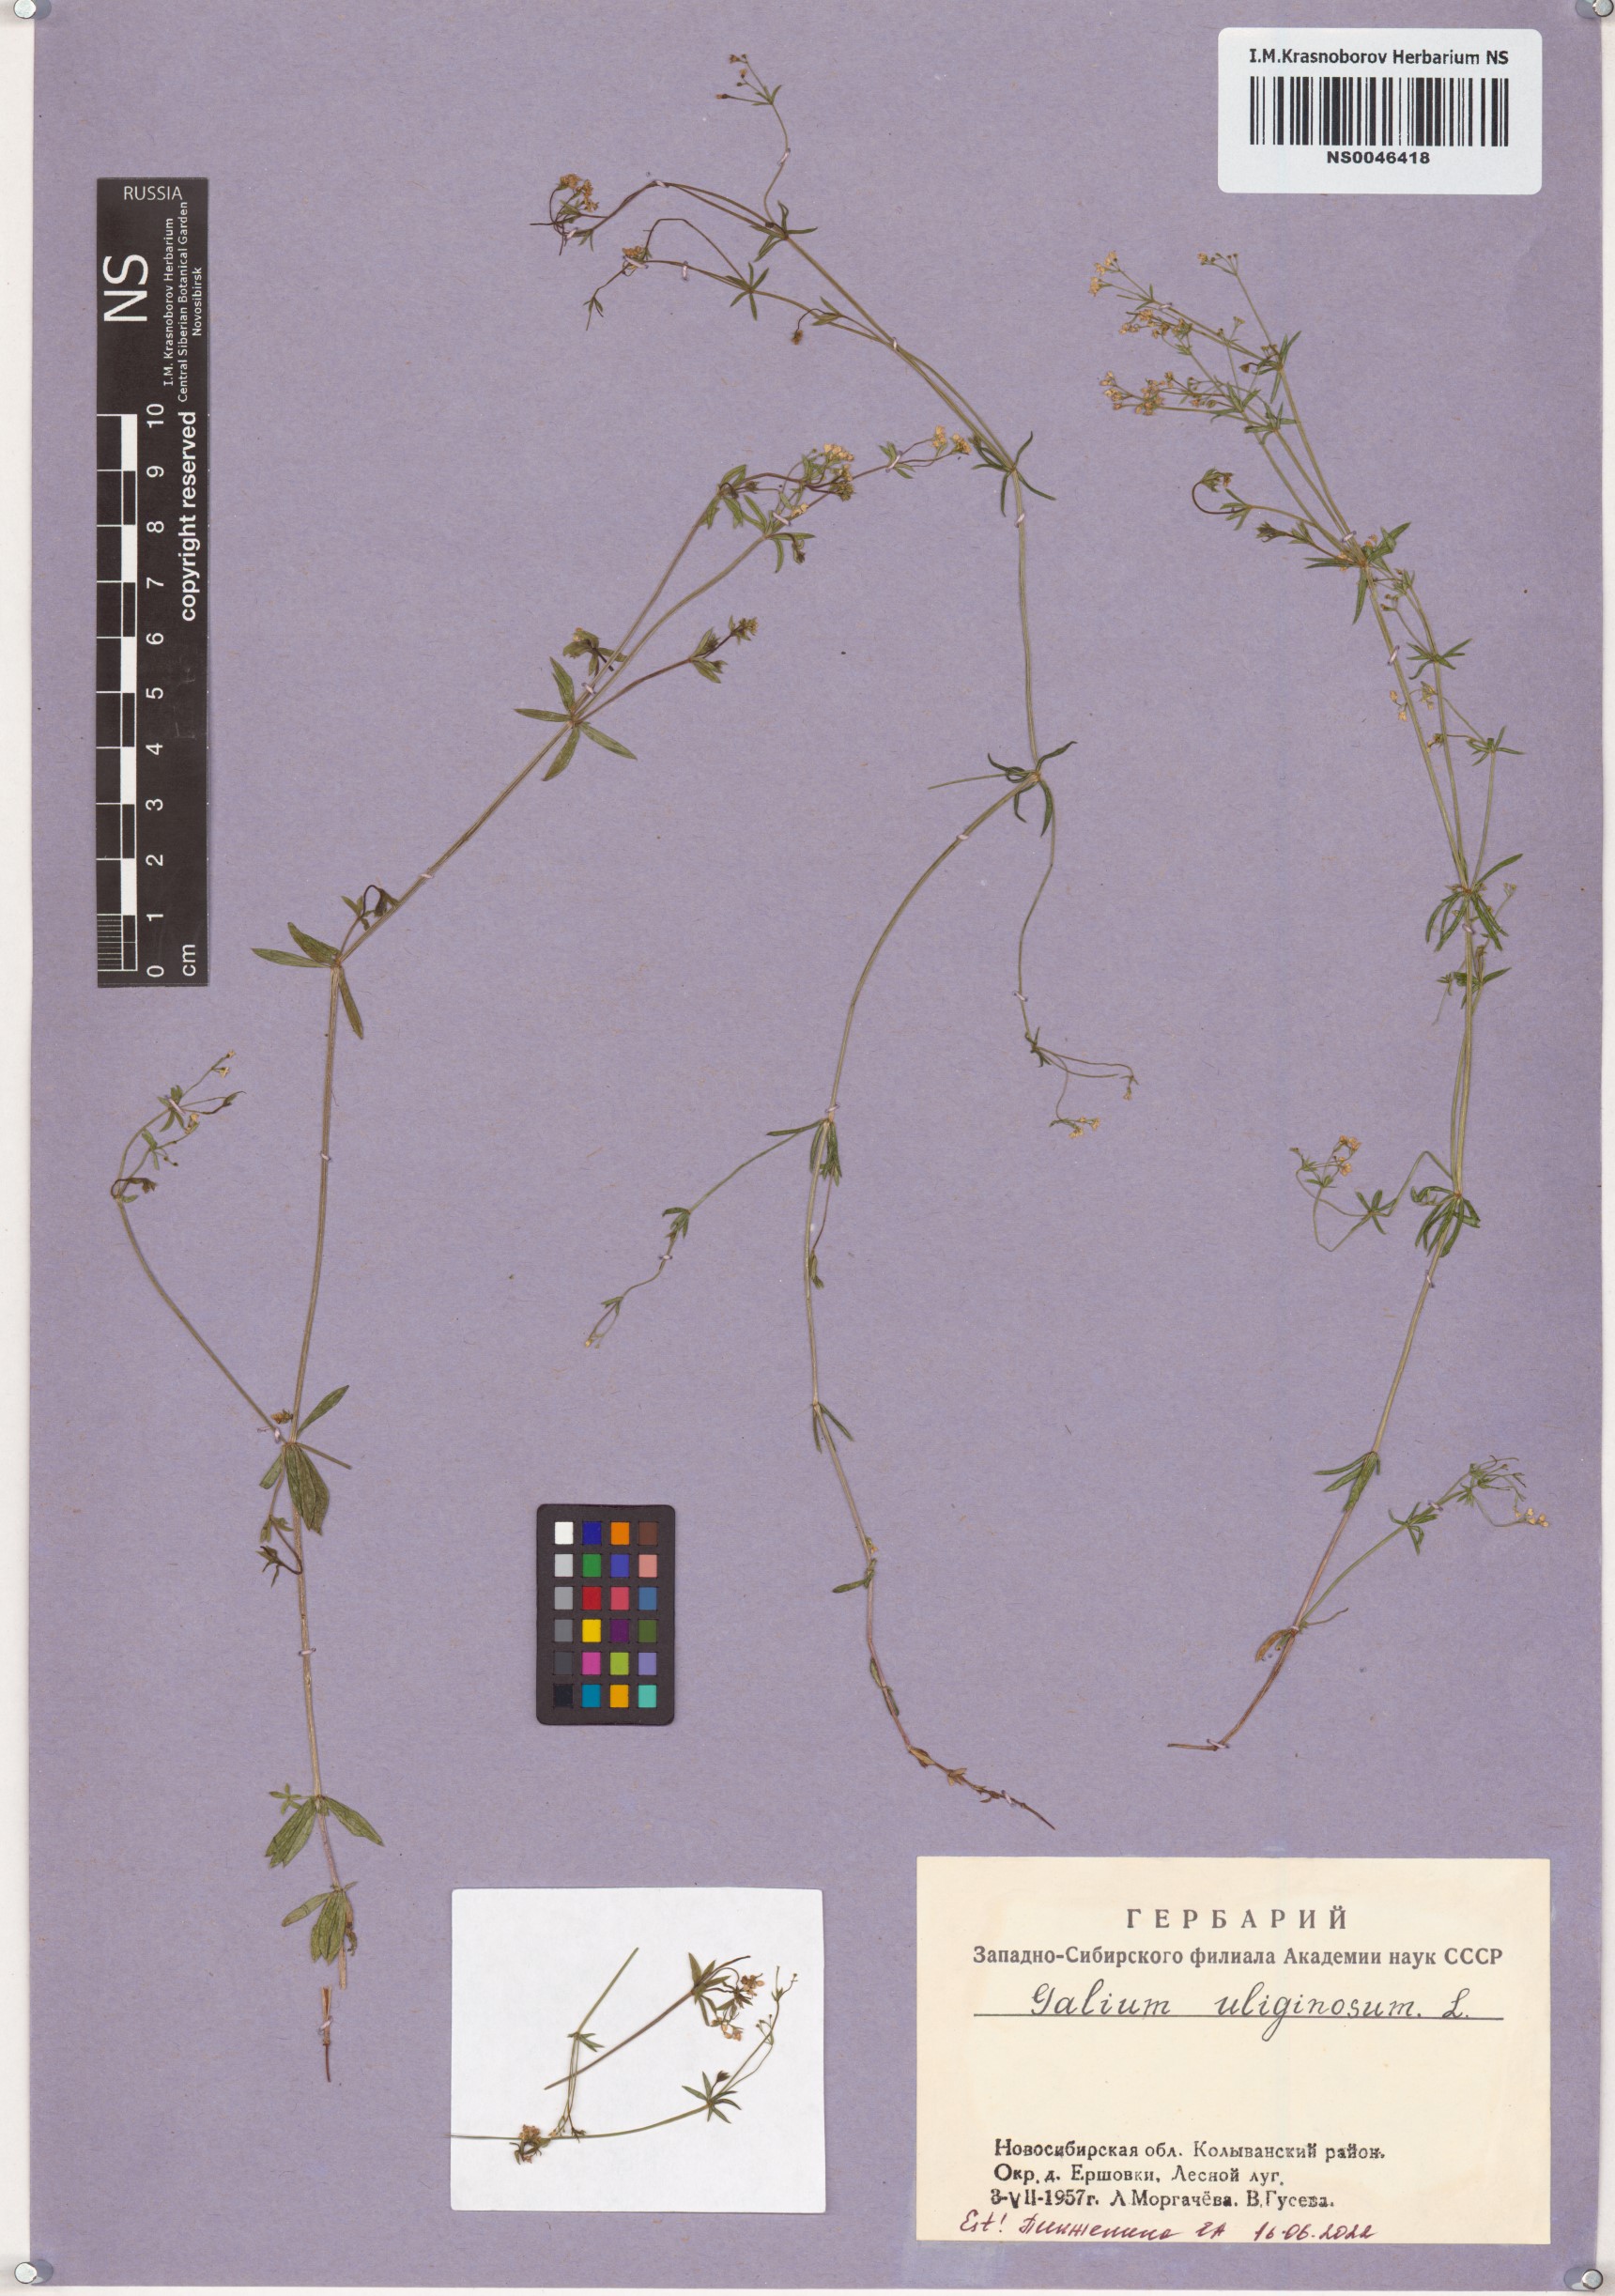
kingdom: Plantae
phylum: Tracheophyta
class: Magnoliopsida
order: Gentianales
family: Rubiaceae
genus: Galium
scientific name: Galium uliginosum
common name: Fen bedstraw
